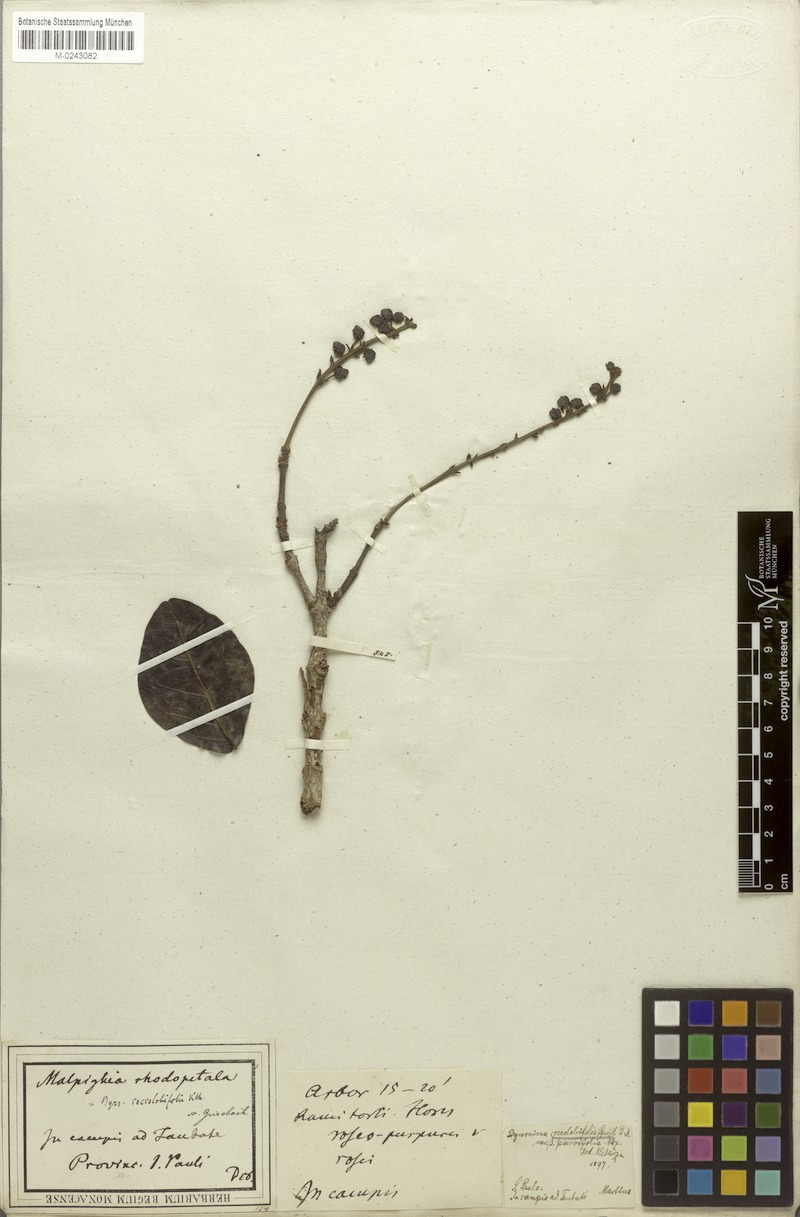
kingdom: Plantae
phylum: Tracheophyta
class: Magnoliopsida
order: Malpighiales
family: Malpighiaceae
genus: Byrsonima
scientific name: Byrsonima coccolobifolia
